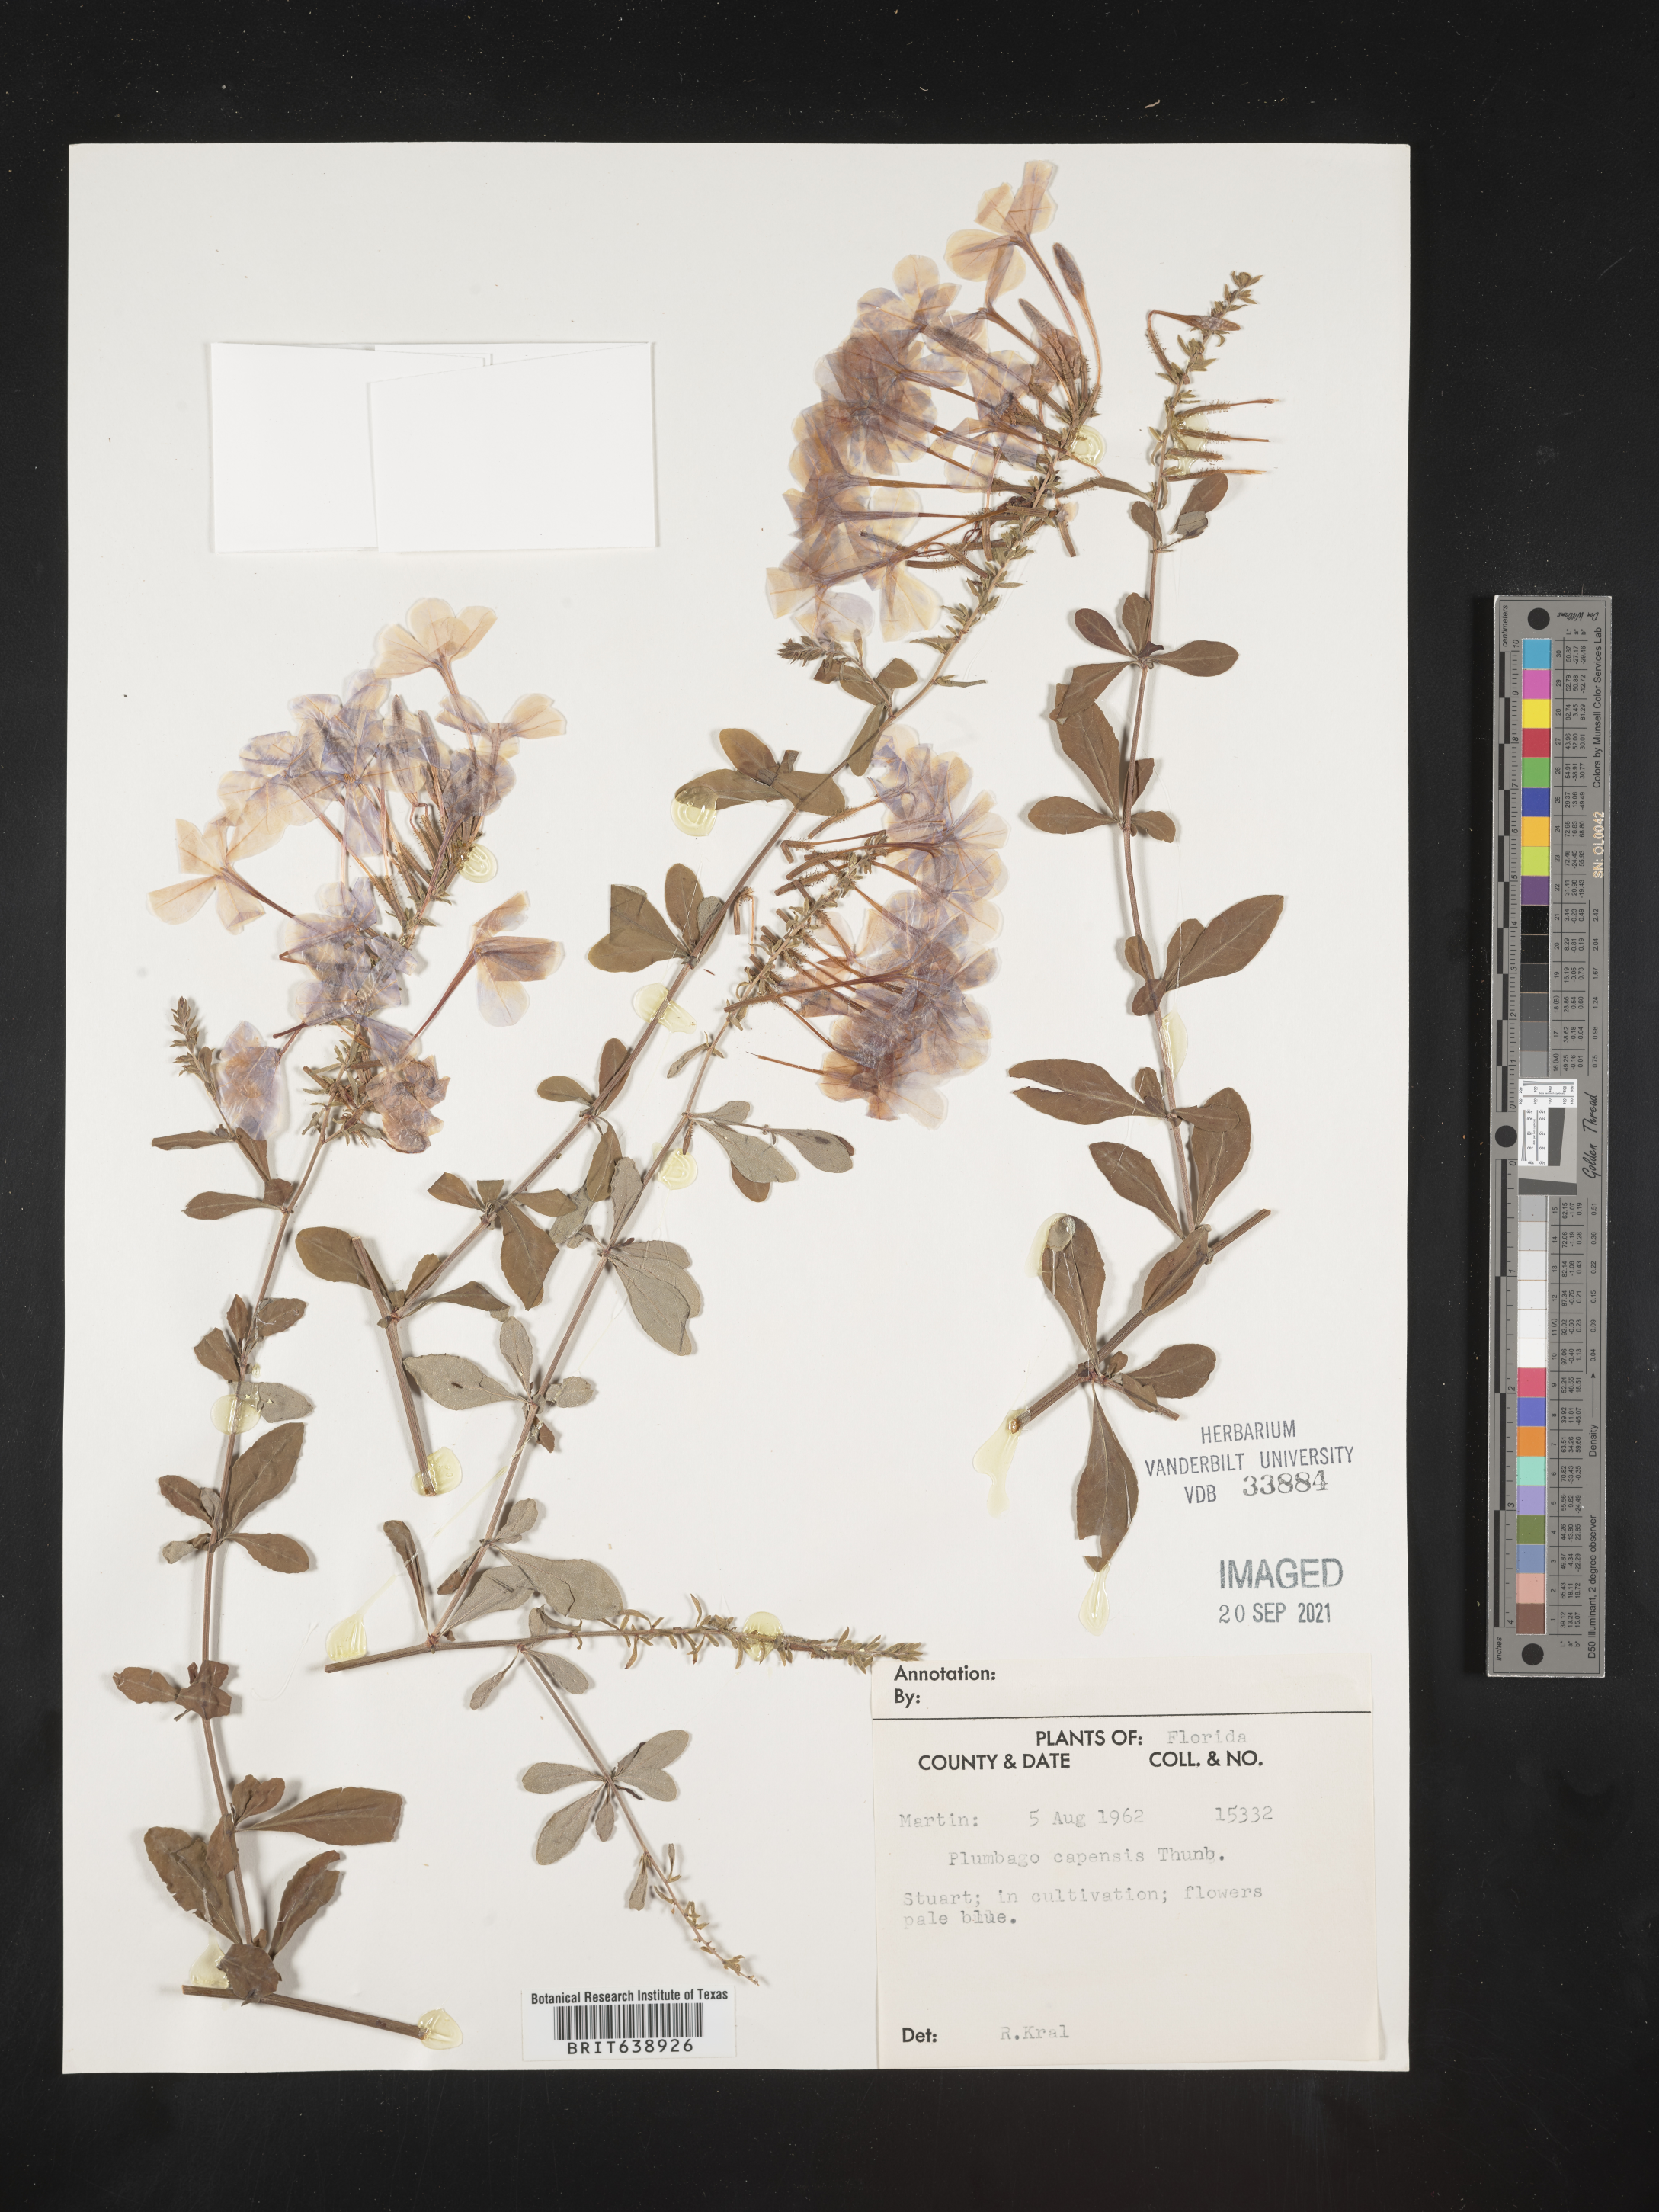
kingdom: Plantae
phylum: Tracheophyta
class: Magnoliopsida
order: Caryophyllales
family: Plumbaginaceae
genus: Plumbago
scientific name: Plumbago
